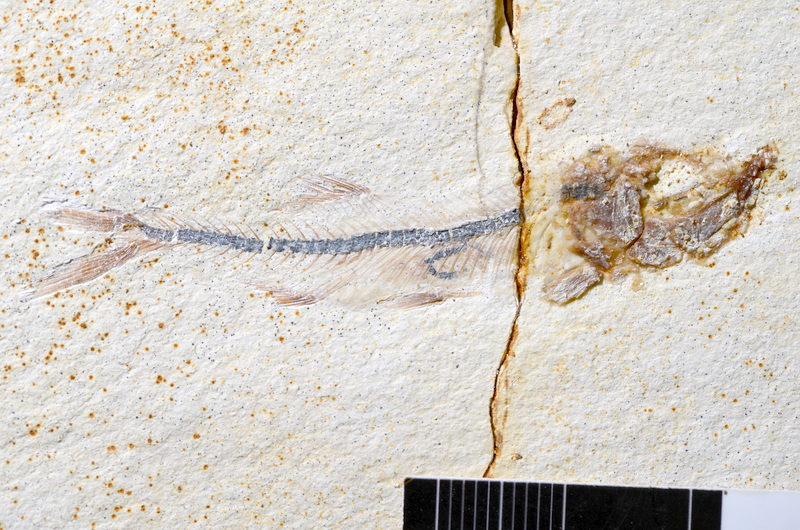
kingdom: Animalia
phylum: Chordata
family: Ascalaboidae
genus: Ebertichthys
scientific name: Ebertichthys ettlingensis
